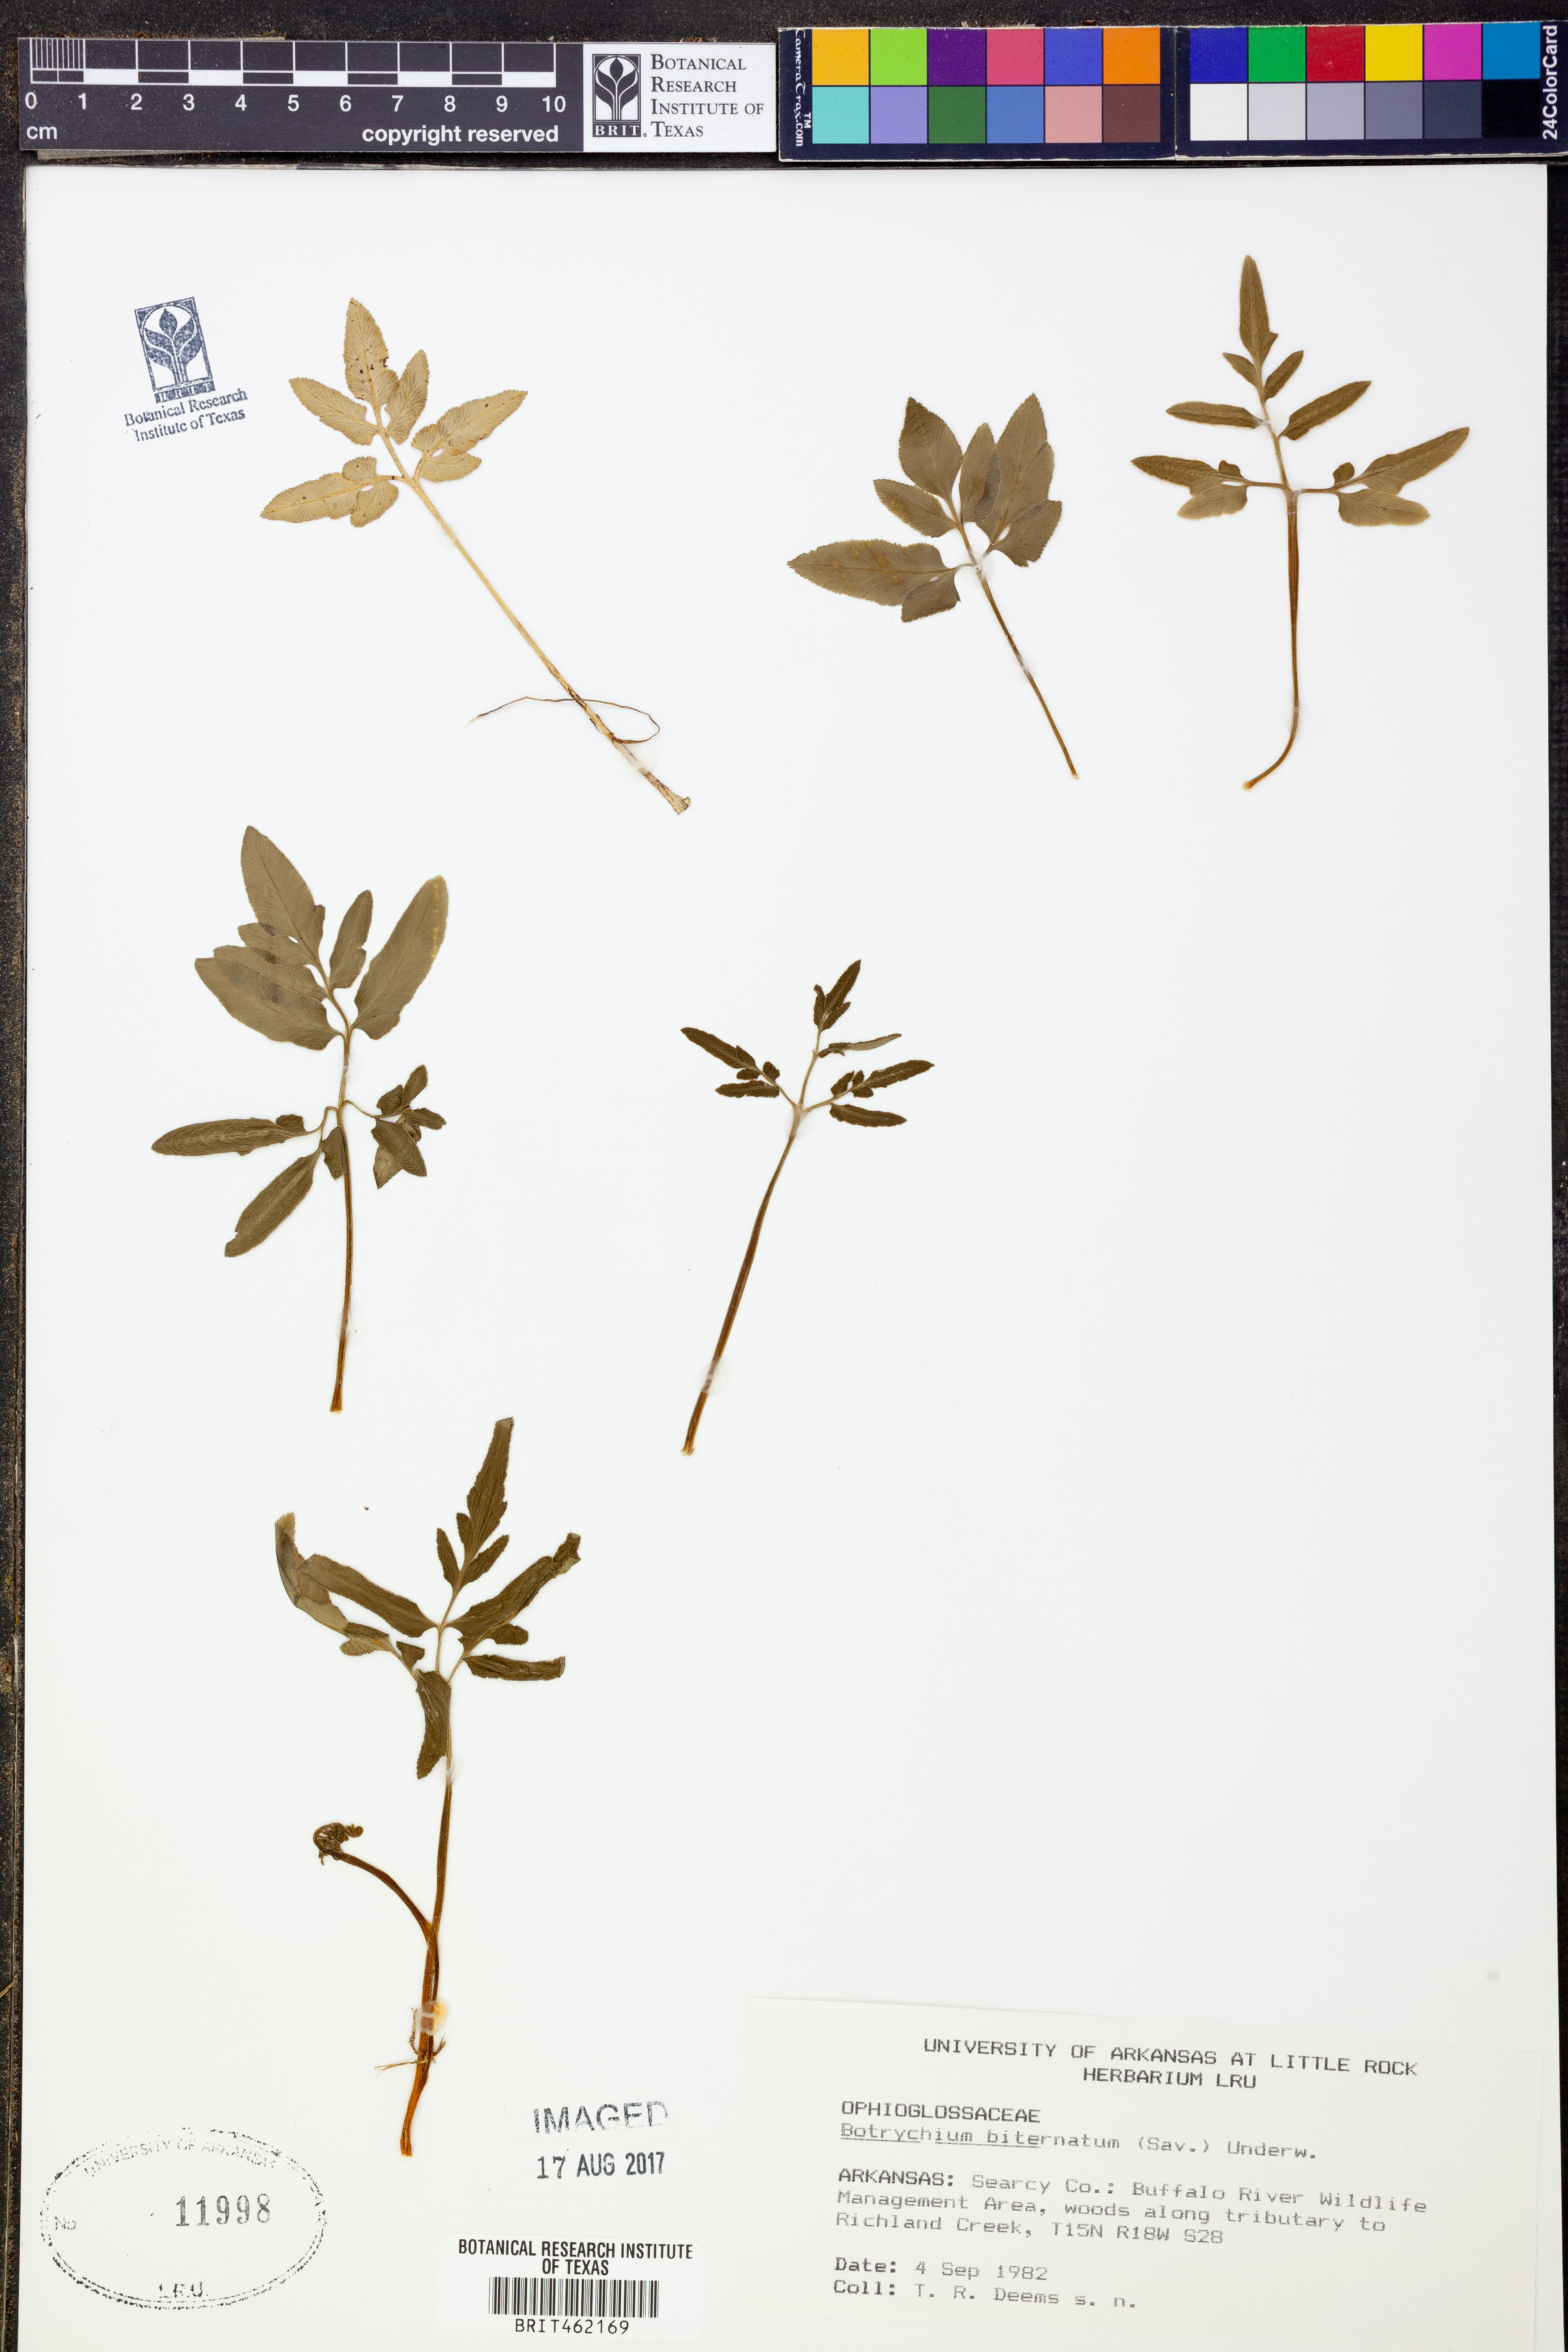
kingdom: Plantae
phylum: Tracheophyta
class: Polypodiopsida
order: Ophioglossales
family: Ophioglossaceae
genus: Sceptridium
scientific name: Sceptridium biternatum
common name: Sparse-lobed grapefern
